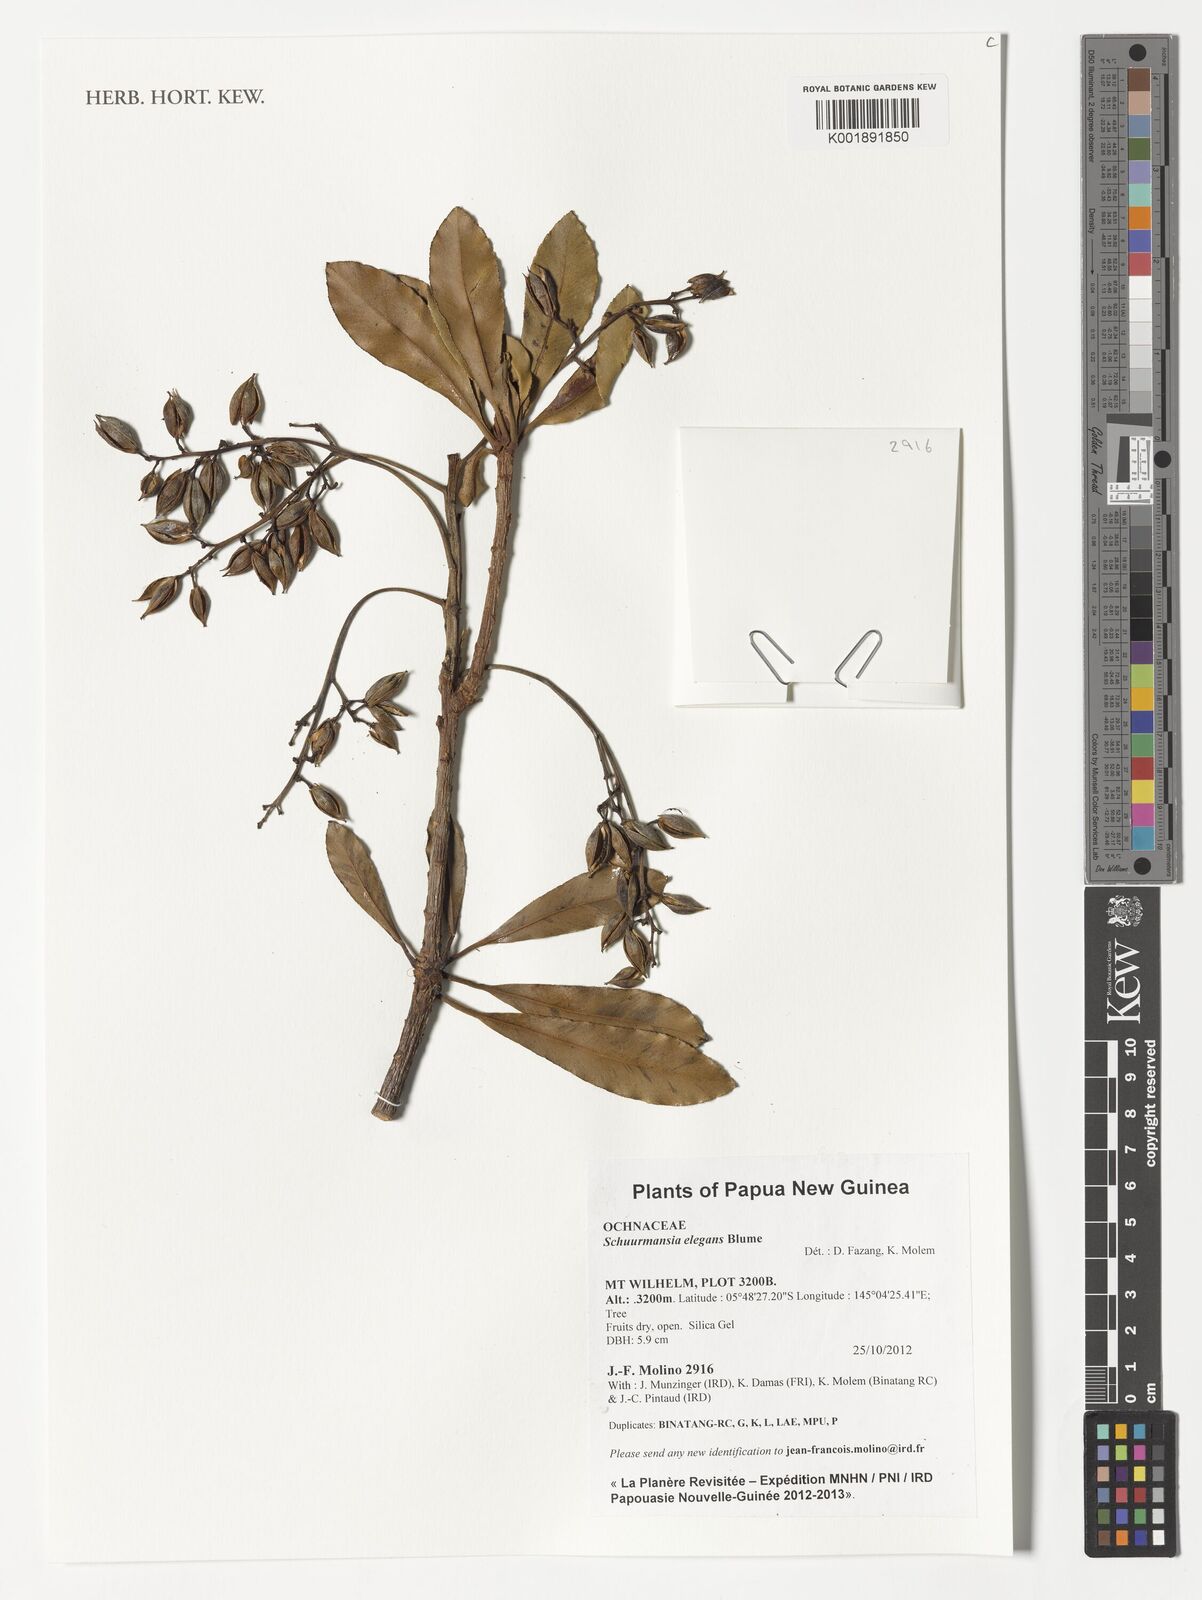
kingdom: Plantae
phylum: Tracheophyta
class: Magnoliopsida
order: Malpighiales
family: Ochnaceae
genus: Schuurmansia
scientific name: Schuurmansia elegans
